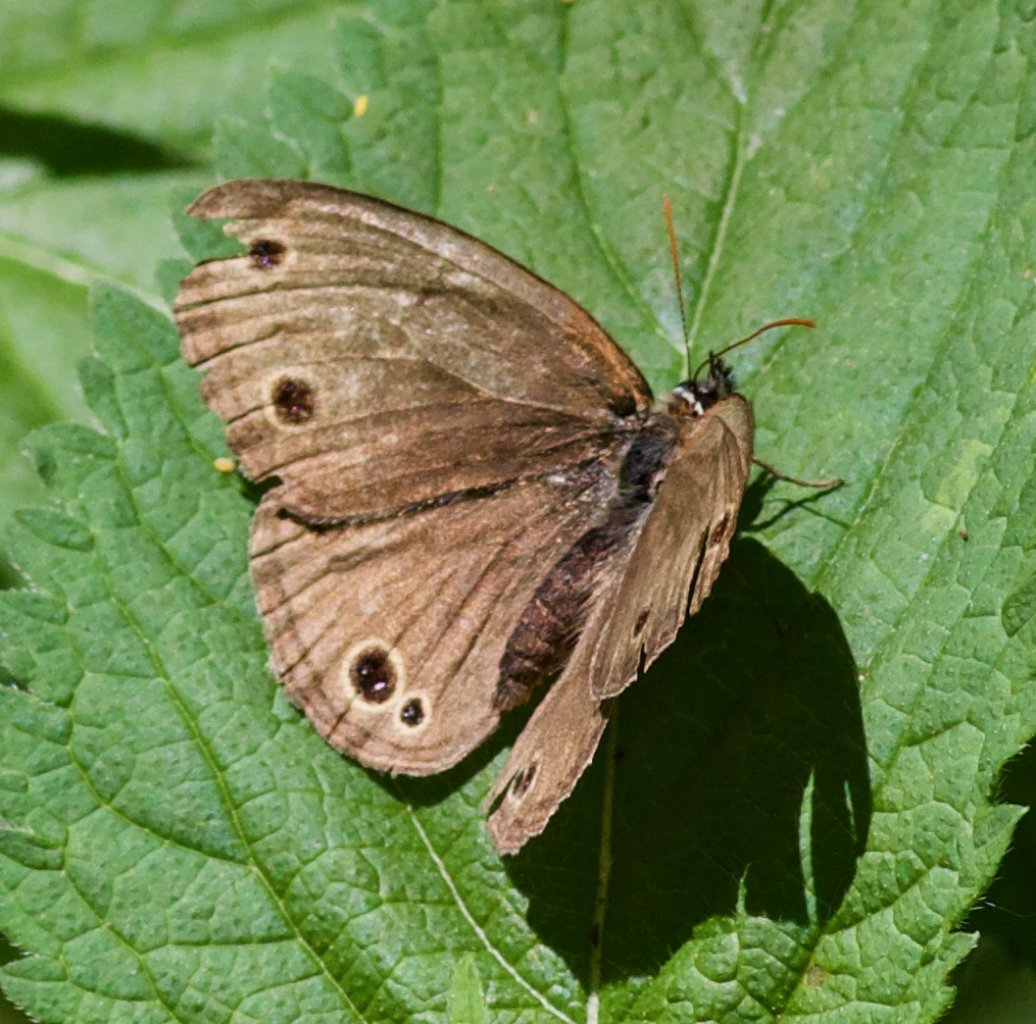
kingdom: Animalia
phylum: Arthropoda
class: Insecta
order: Lepidoptera
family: Nymphalidae
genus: Euptychia
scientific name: Euptychia cymela
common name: Little Wood Satyr
